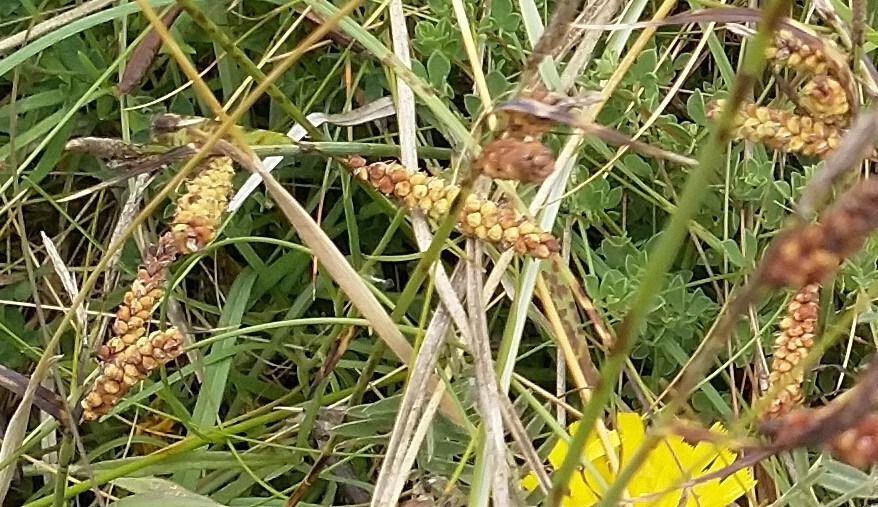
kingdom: Plantae
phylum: Tracheophyta
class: Liliopsida
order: Poales
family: Cyperaceae
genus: Carex
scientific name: Carex flacca
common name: Blågrøn star
